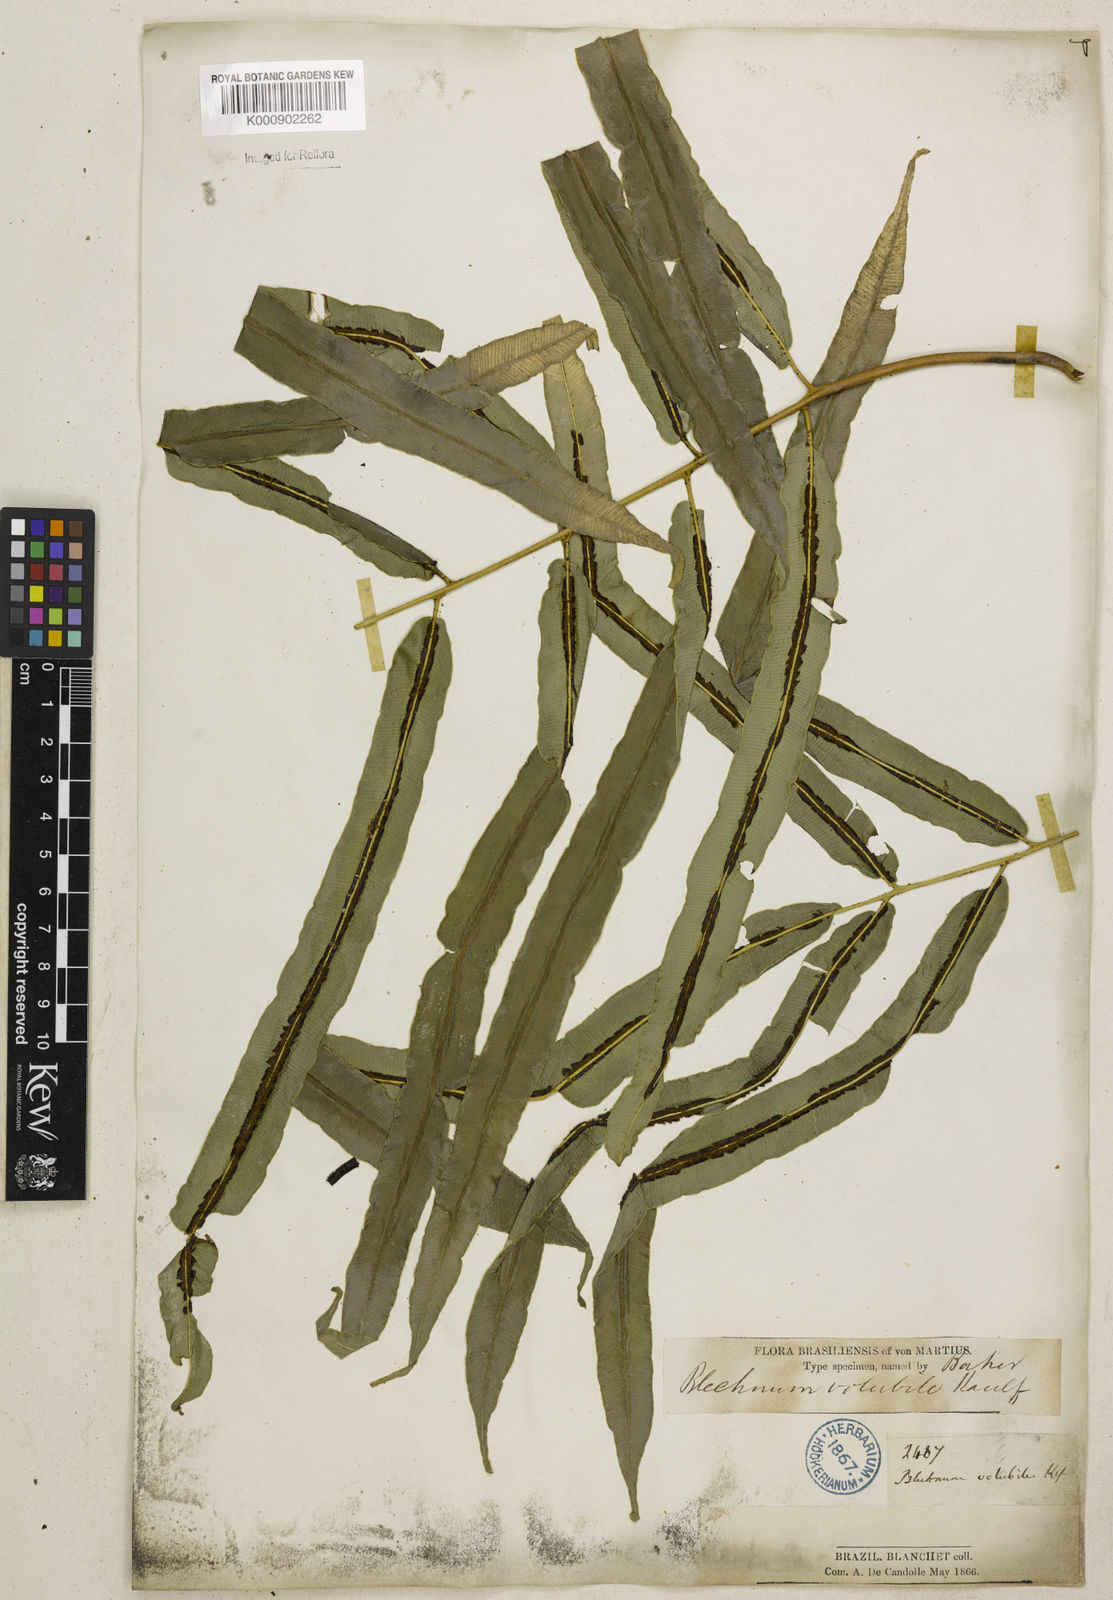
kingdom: Plantae
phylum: Tracheophyta
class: Polypodiopsida
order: Polypodiales
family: Blechnaceae
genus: Salpichlaena
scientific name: Salpichlaena volubilis
